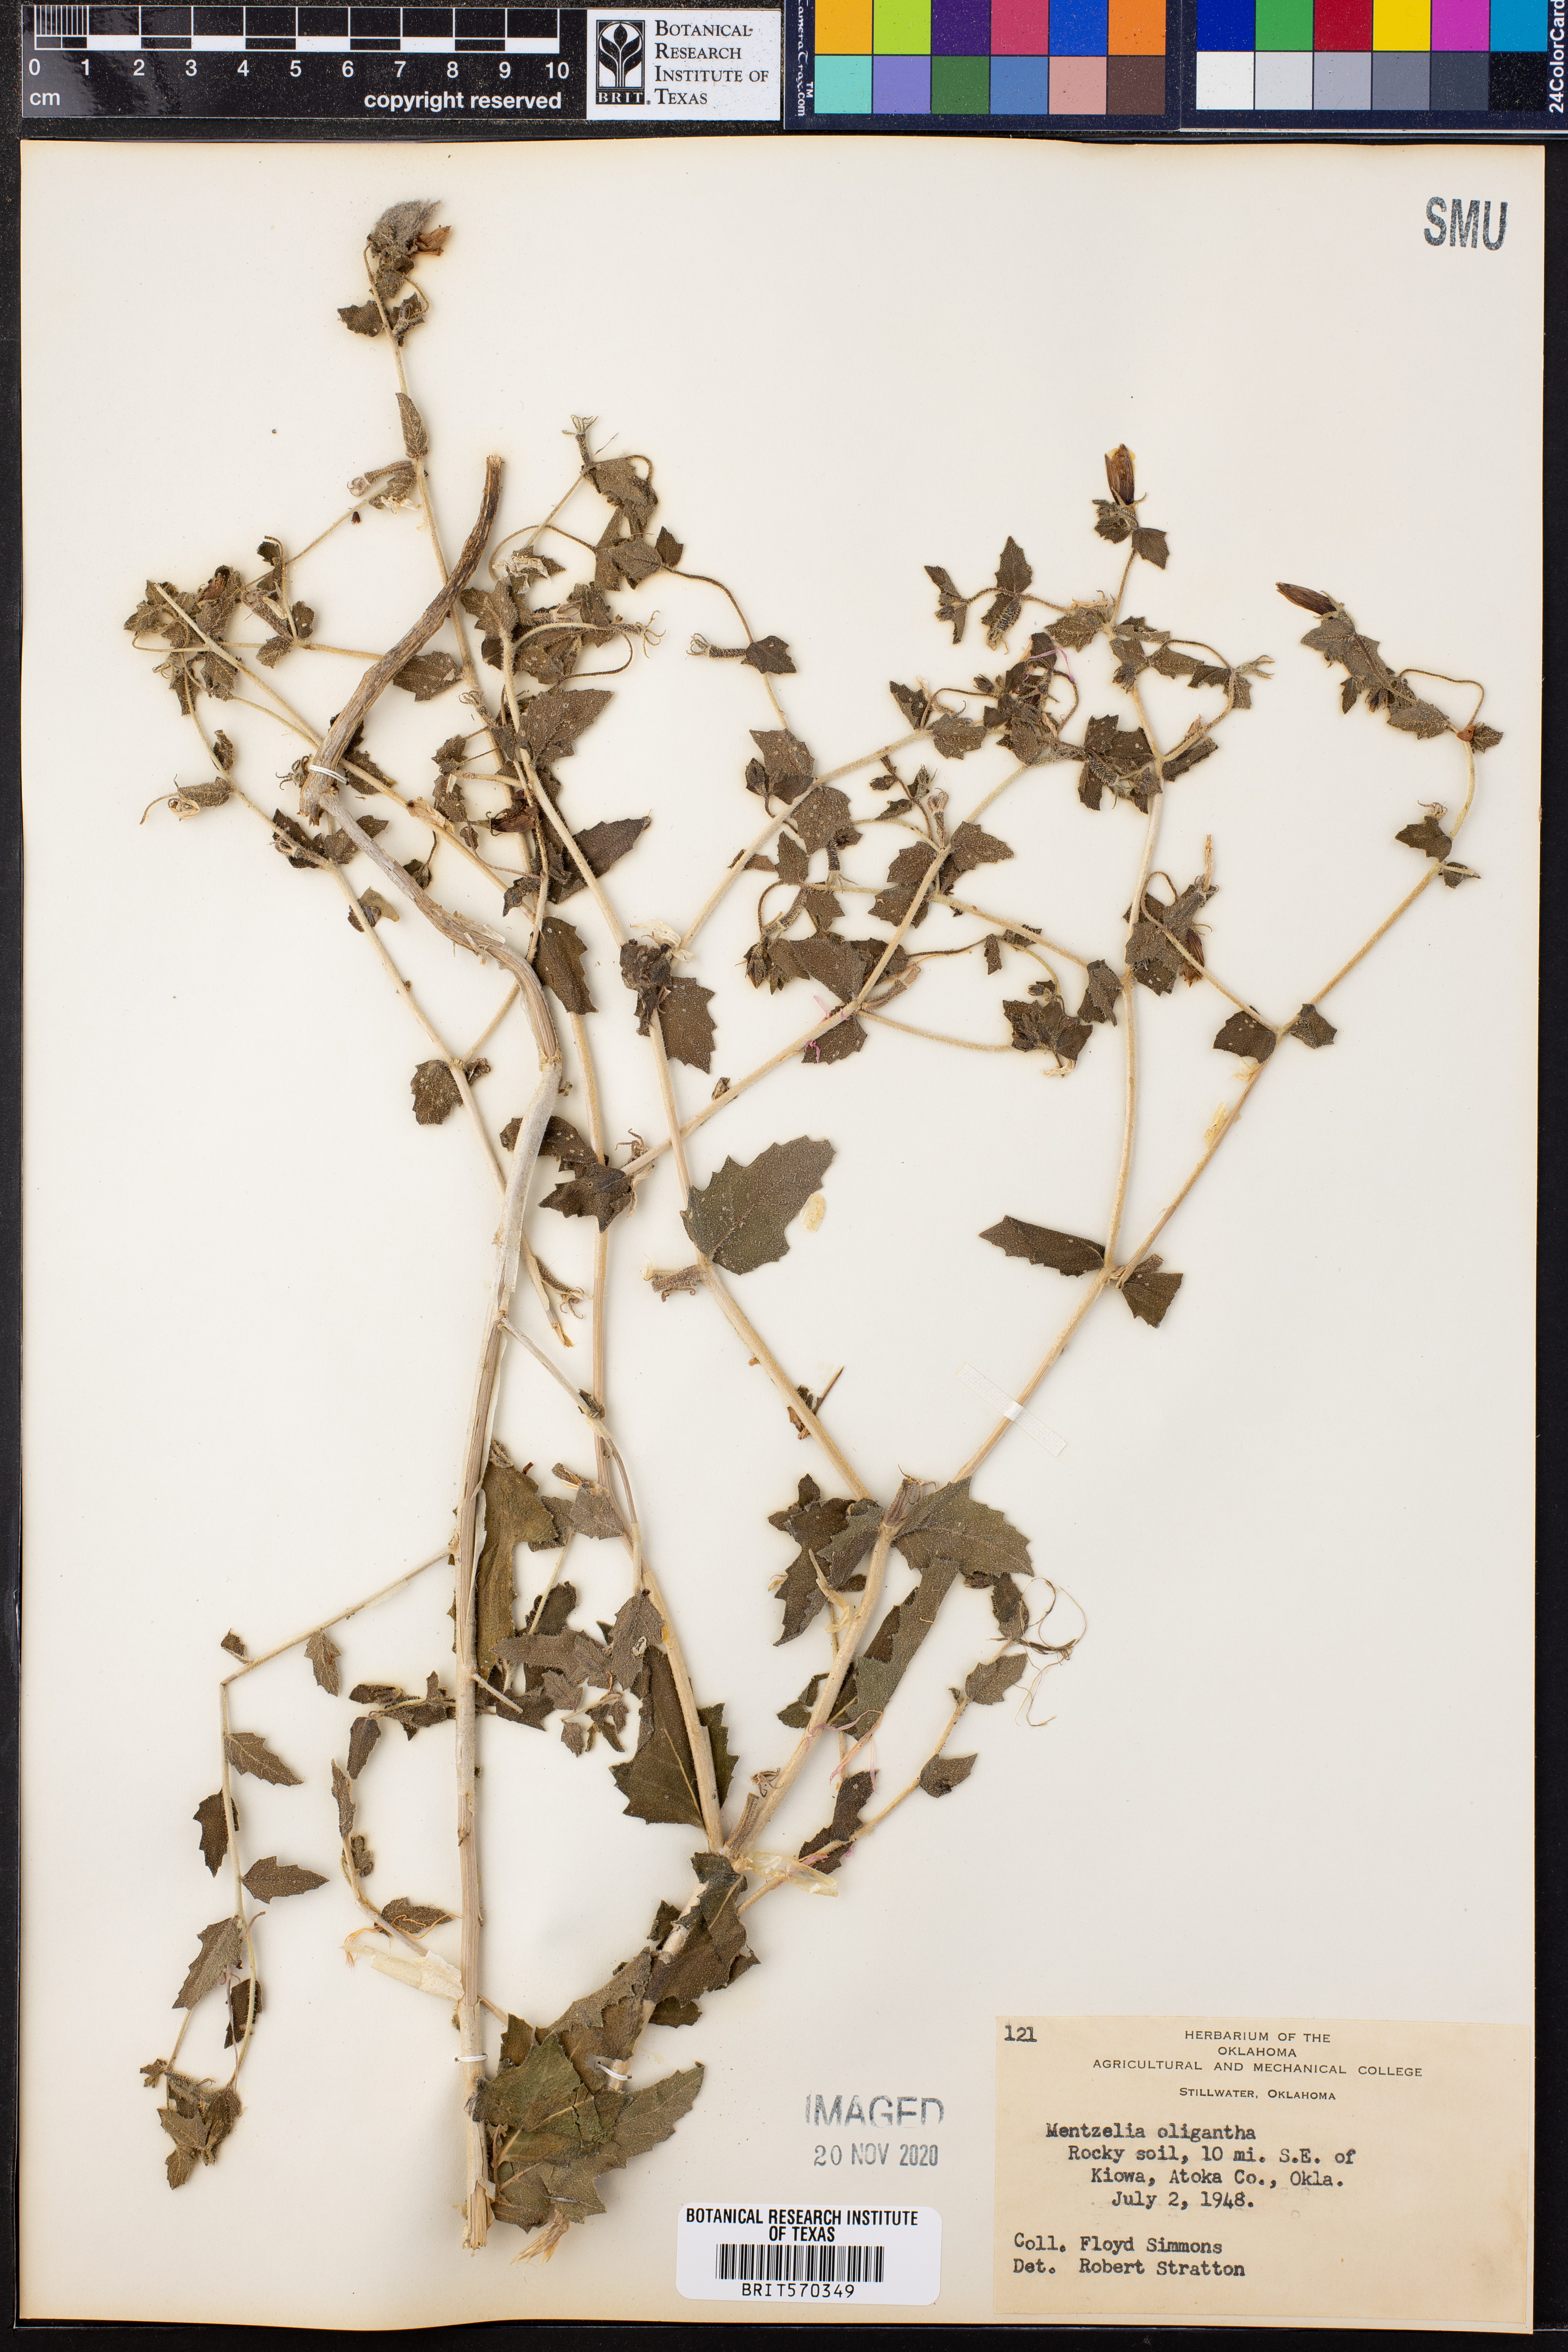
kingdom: Plantae
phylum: Tracheophyta
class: Magnoliopsida
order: Cornales
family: Loasaceae
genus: Mentzelia
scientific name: Mentzelia oligosperma
